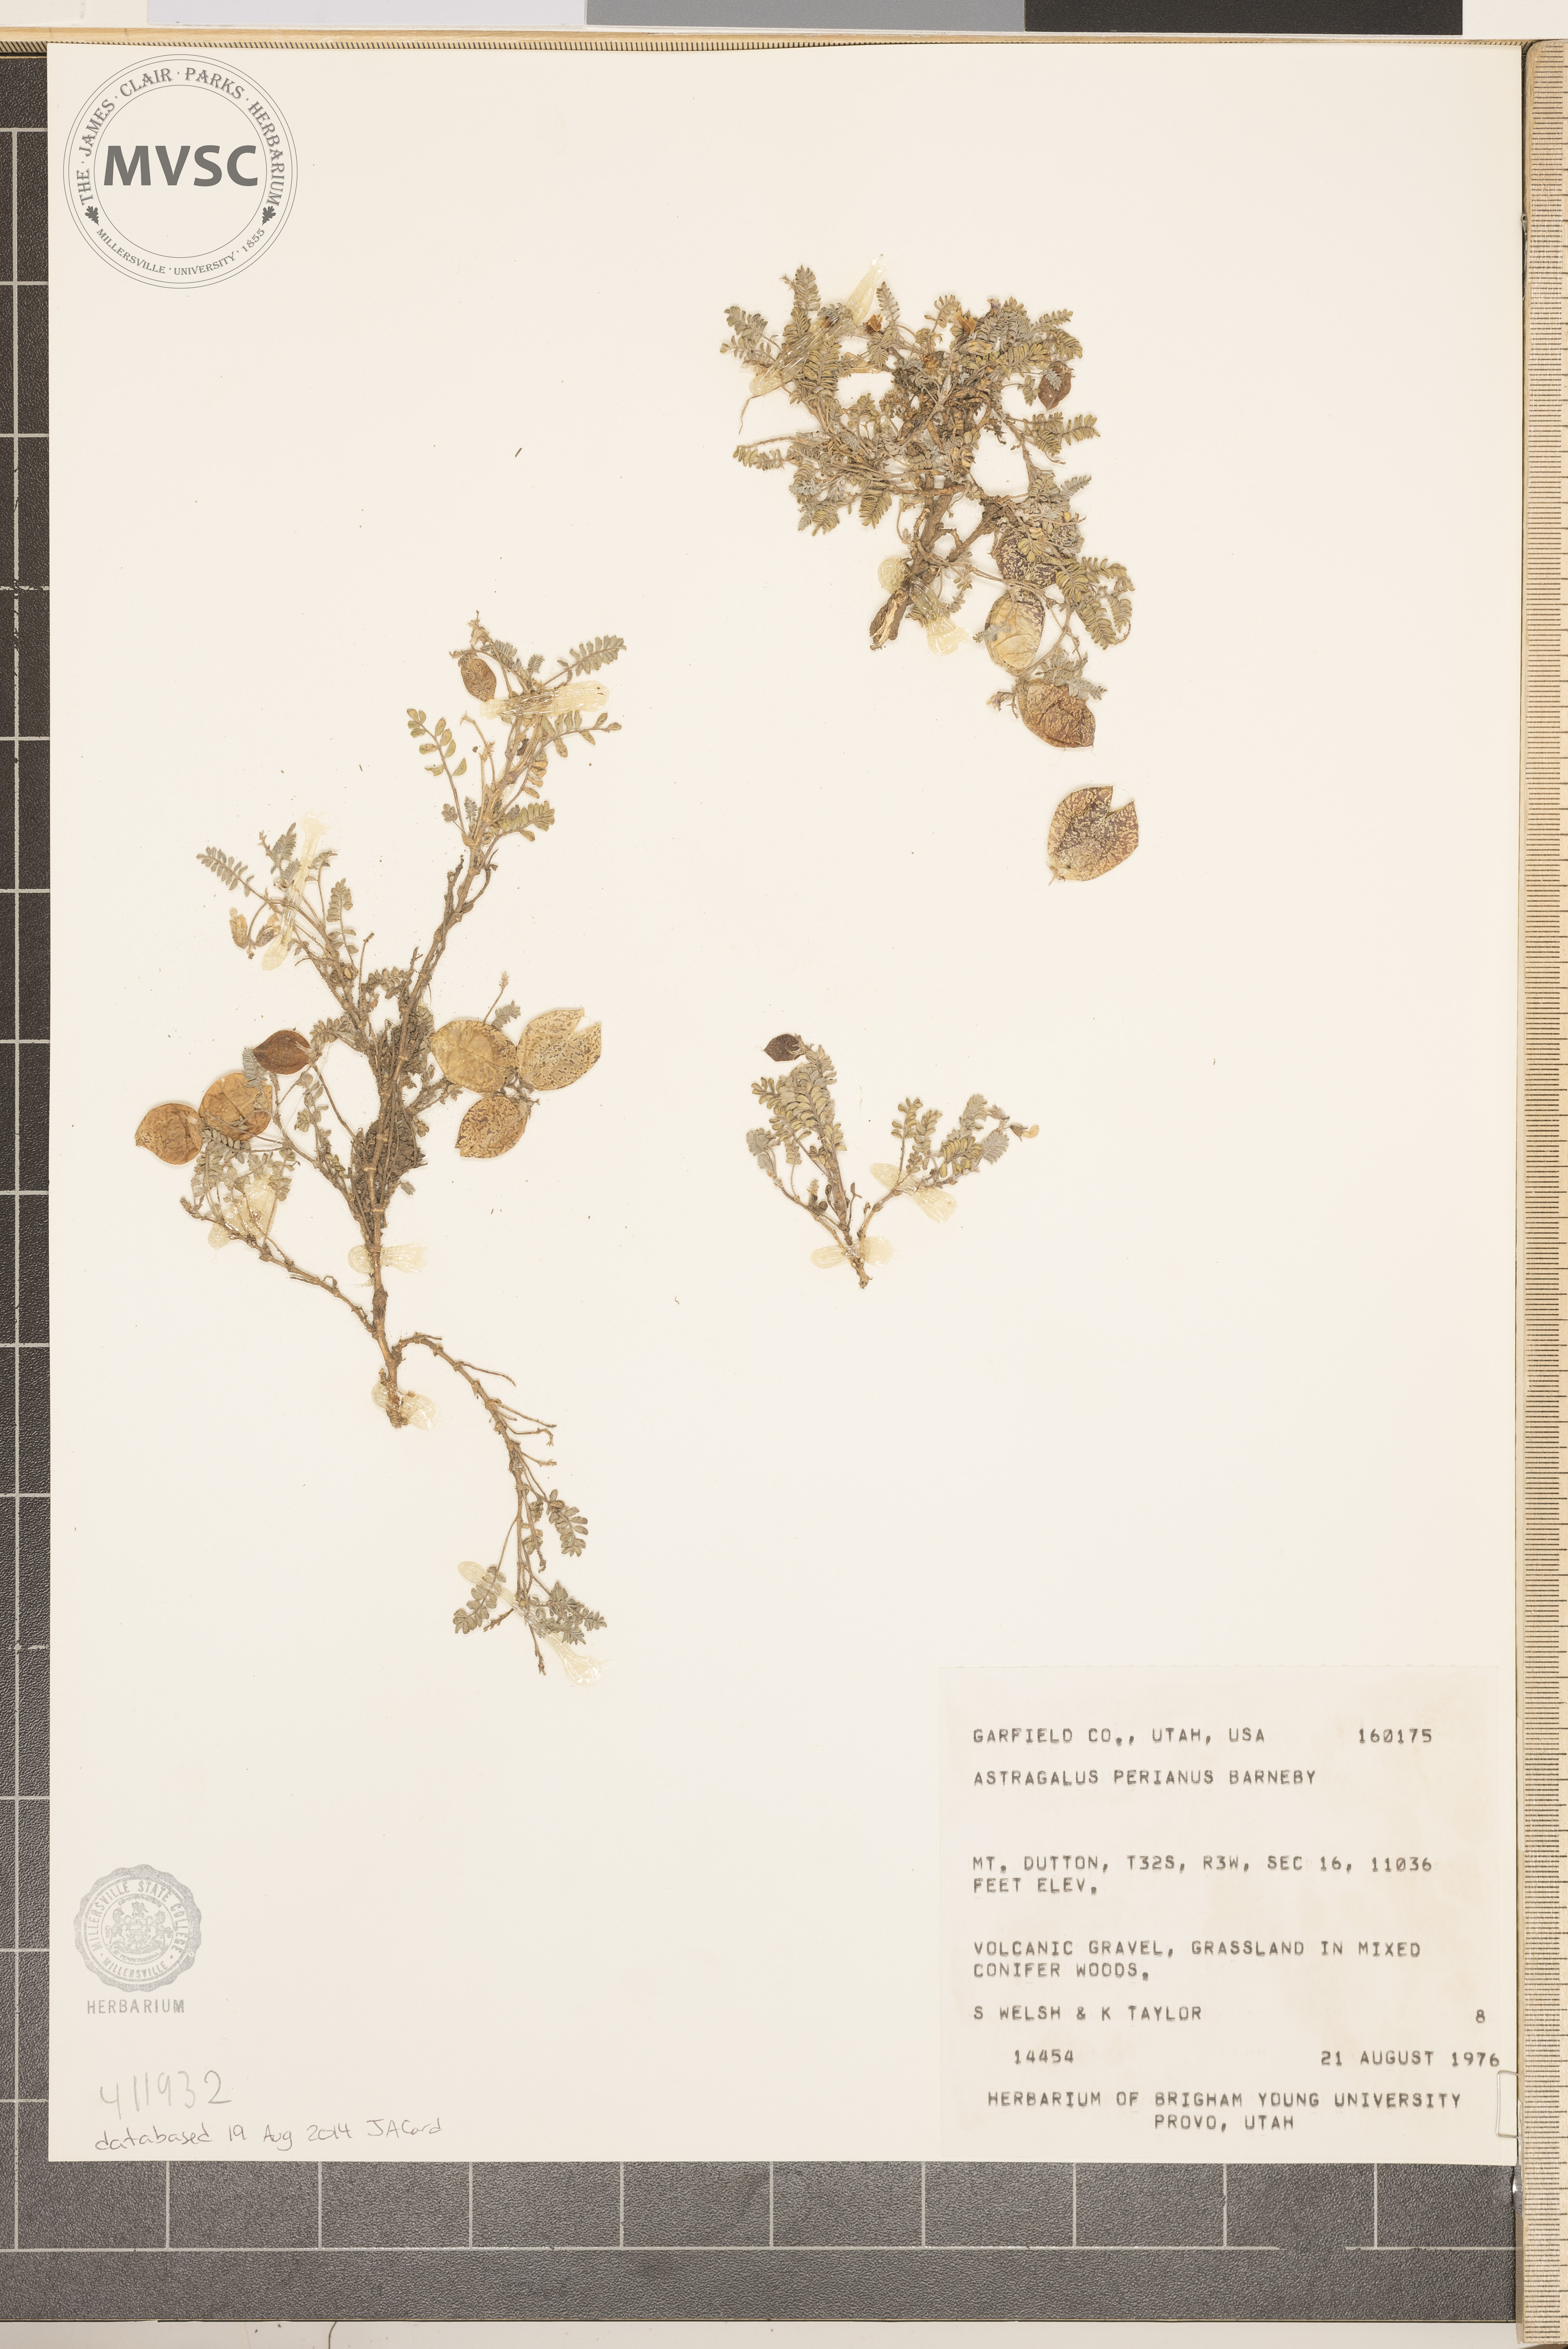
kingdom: Plantae
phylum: Tracheophyta
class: Magnoliopsida
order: Fabales
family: Fabaceae
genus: Astragalus
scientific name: Astragalus perianus
